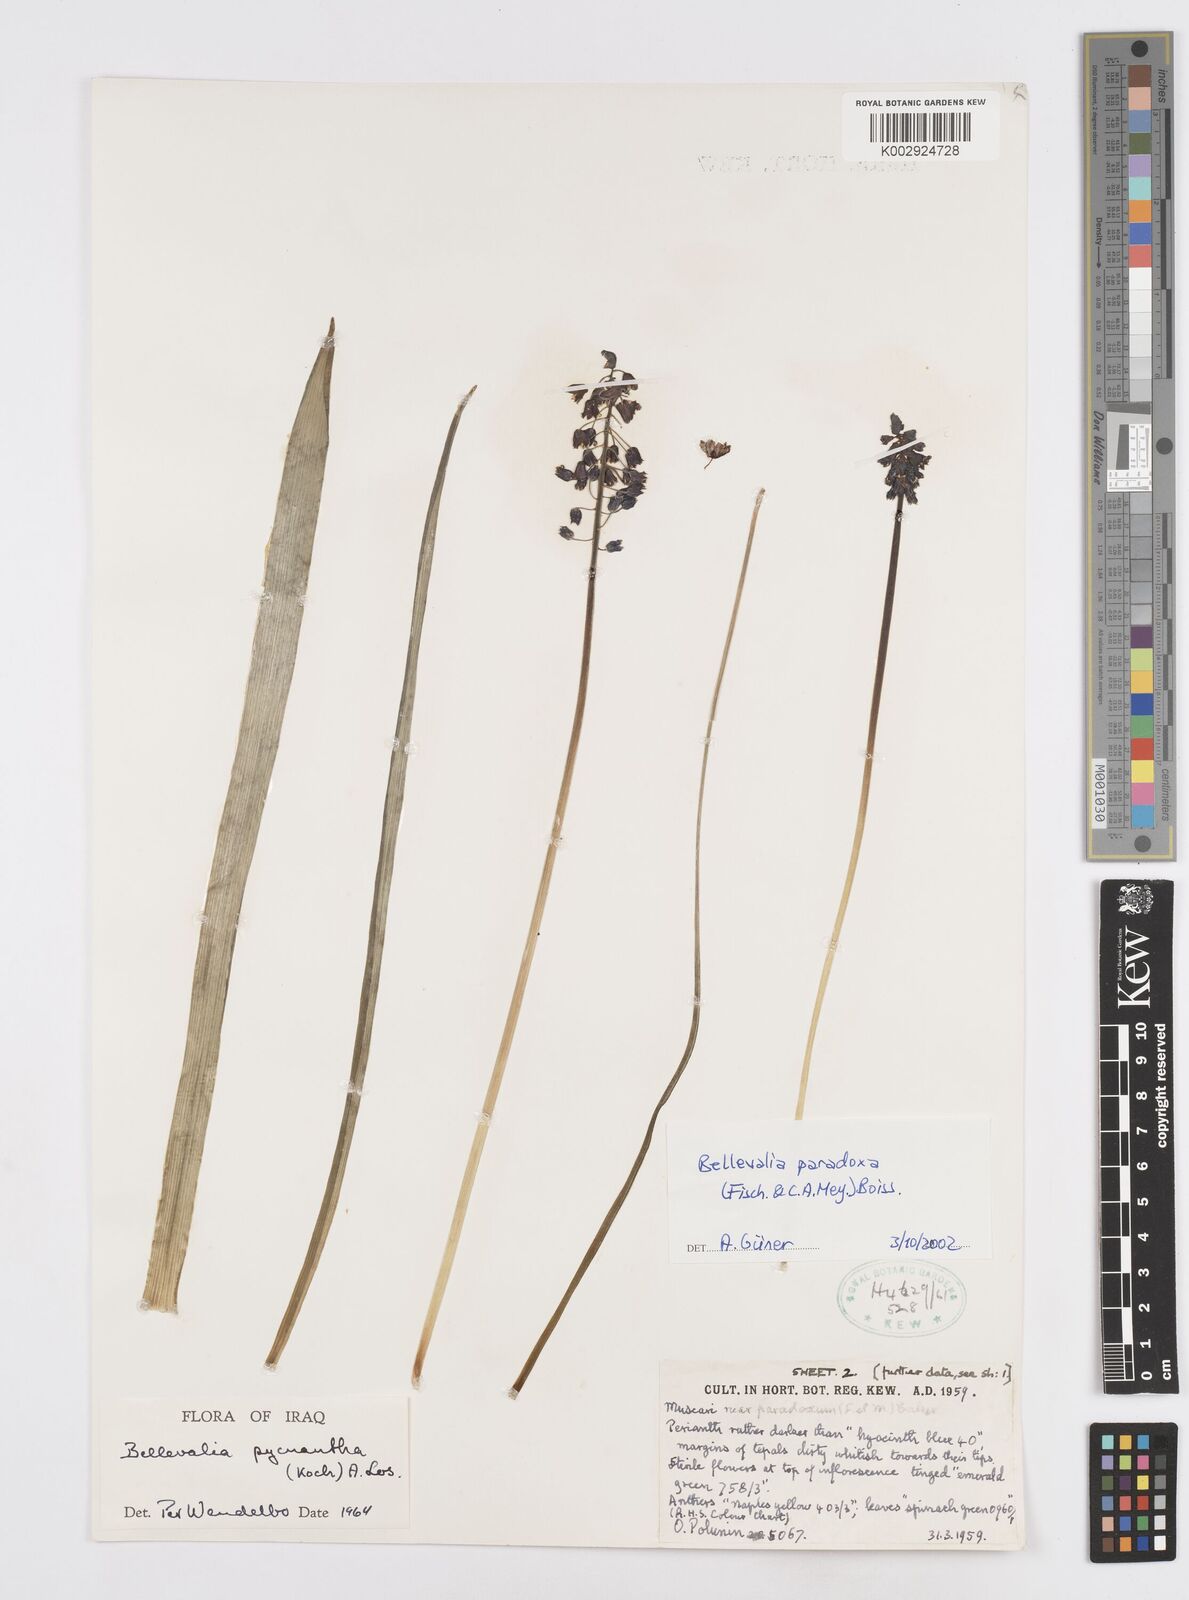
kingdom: Plantae
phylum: Tracheophyta
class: Liliopsida
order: Asparagales
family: Asparagaceae
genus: Bellevalia
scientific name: Bellevalia paradoxa
